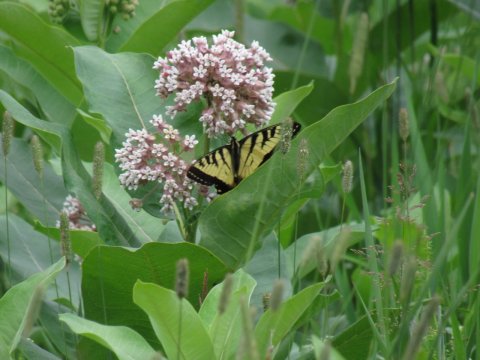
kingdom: Animalia
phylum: Arthropoda
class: Insecta
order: Lepidoptera
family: Papilionidae
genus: Pterourus
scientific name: Pterourus
